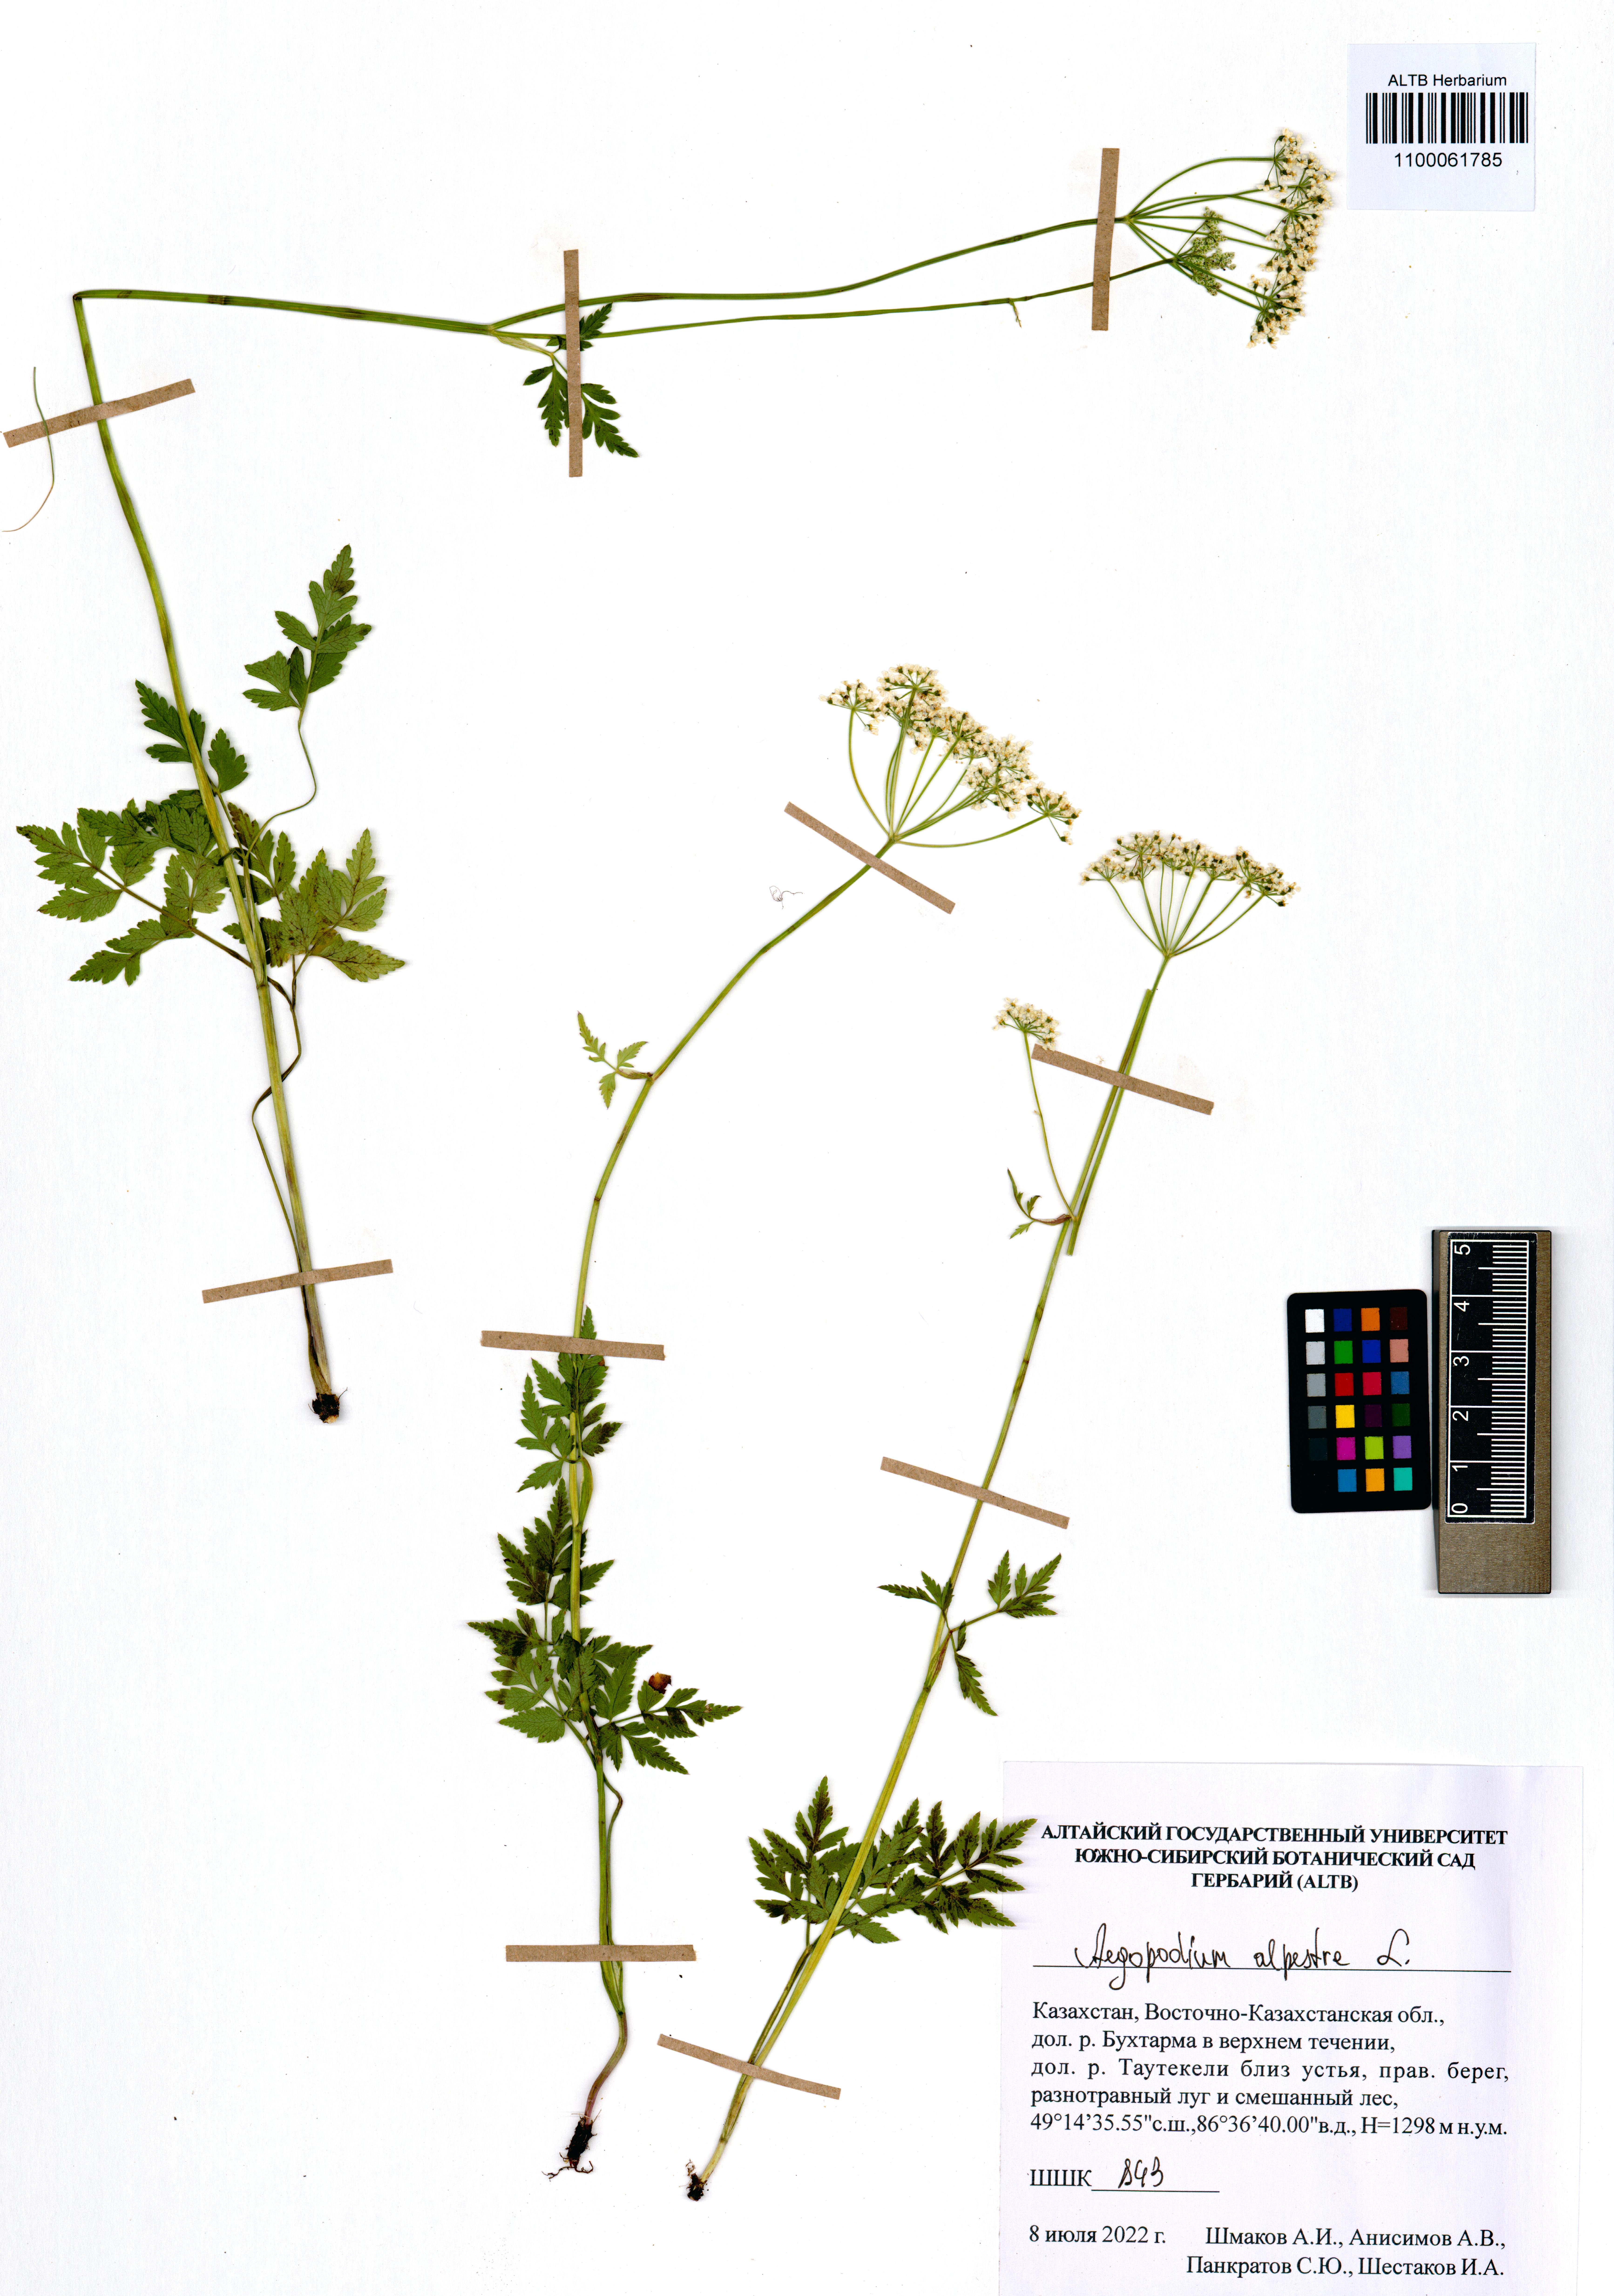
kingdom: Plantae
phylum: Tracheophyta
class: Magnoliopsida
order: Apiales
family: Apiaceae
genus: Aegopodium
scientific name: Aegopodium alpestre
